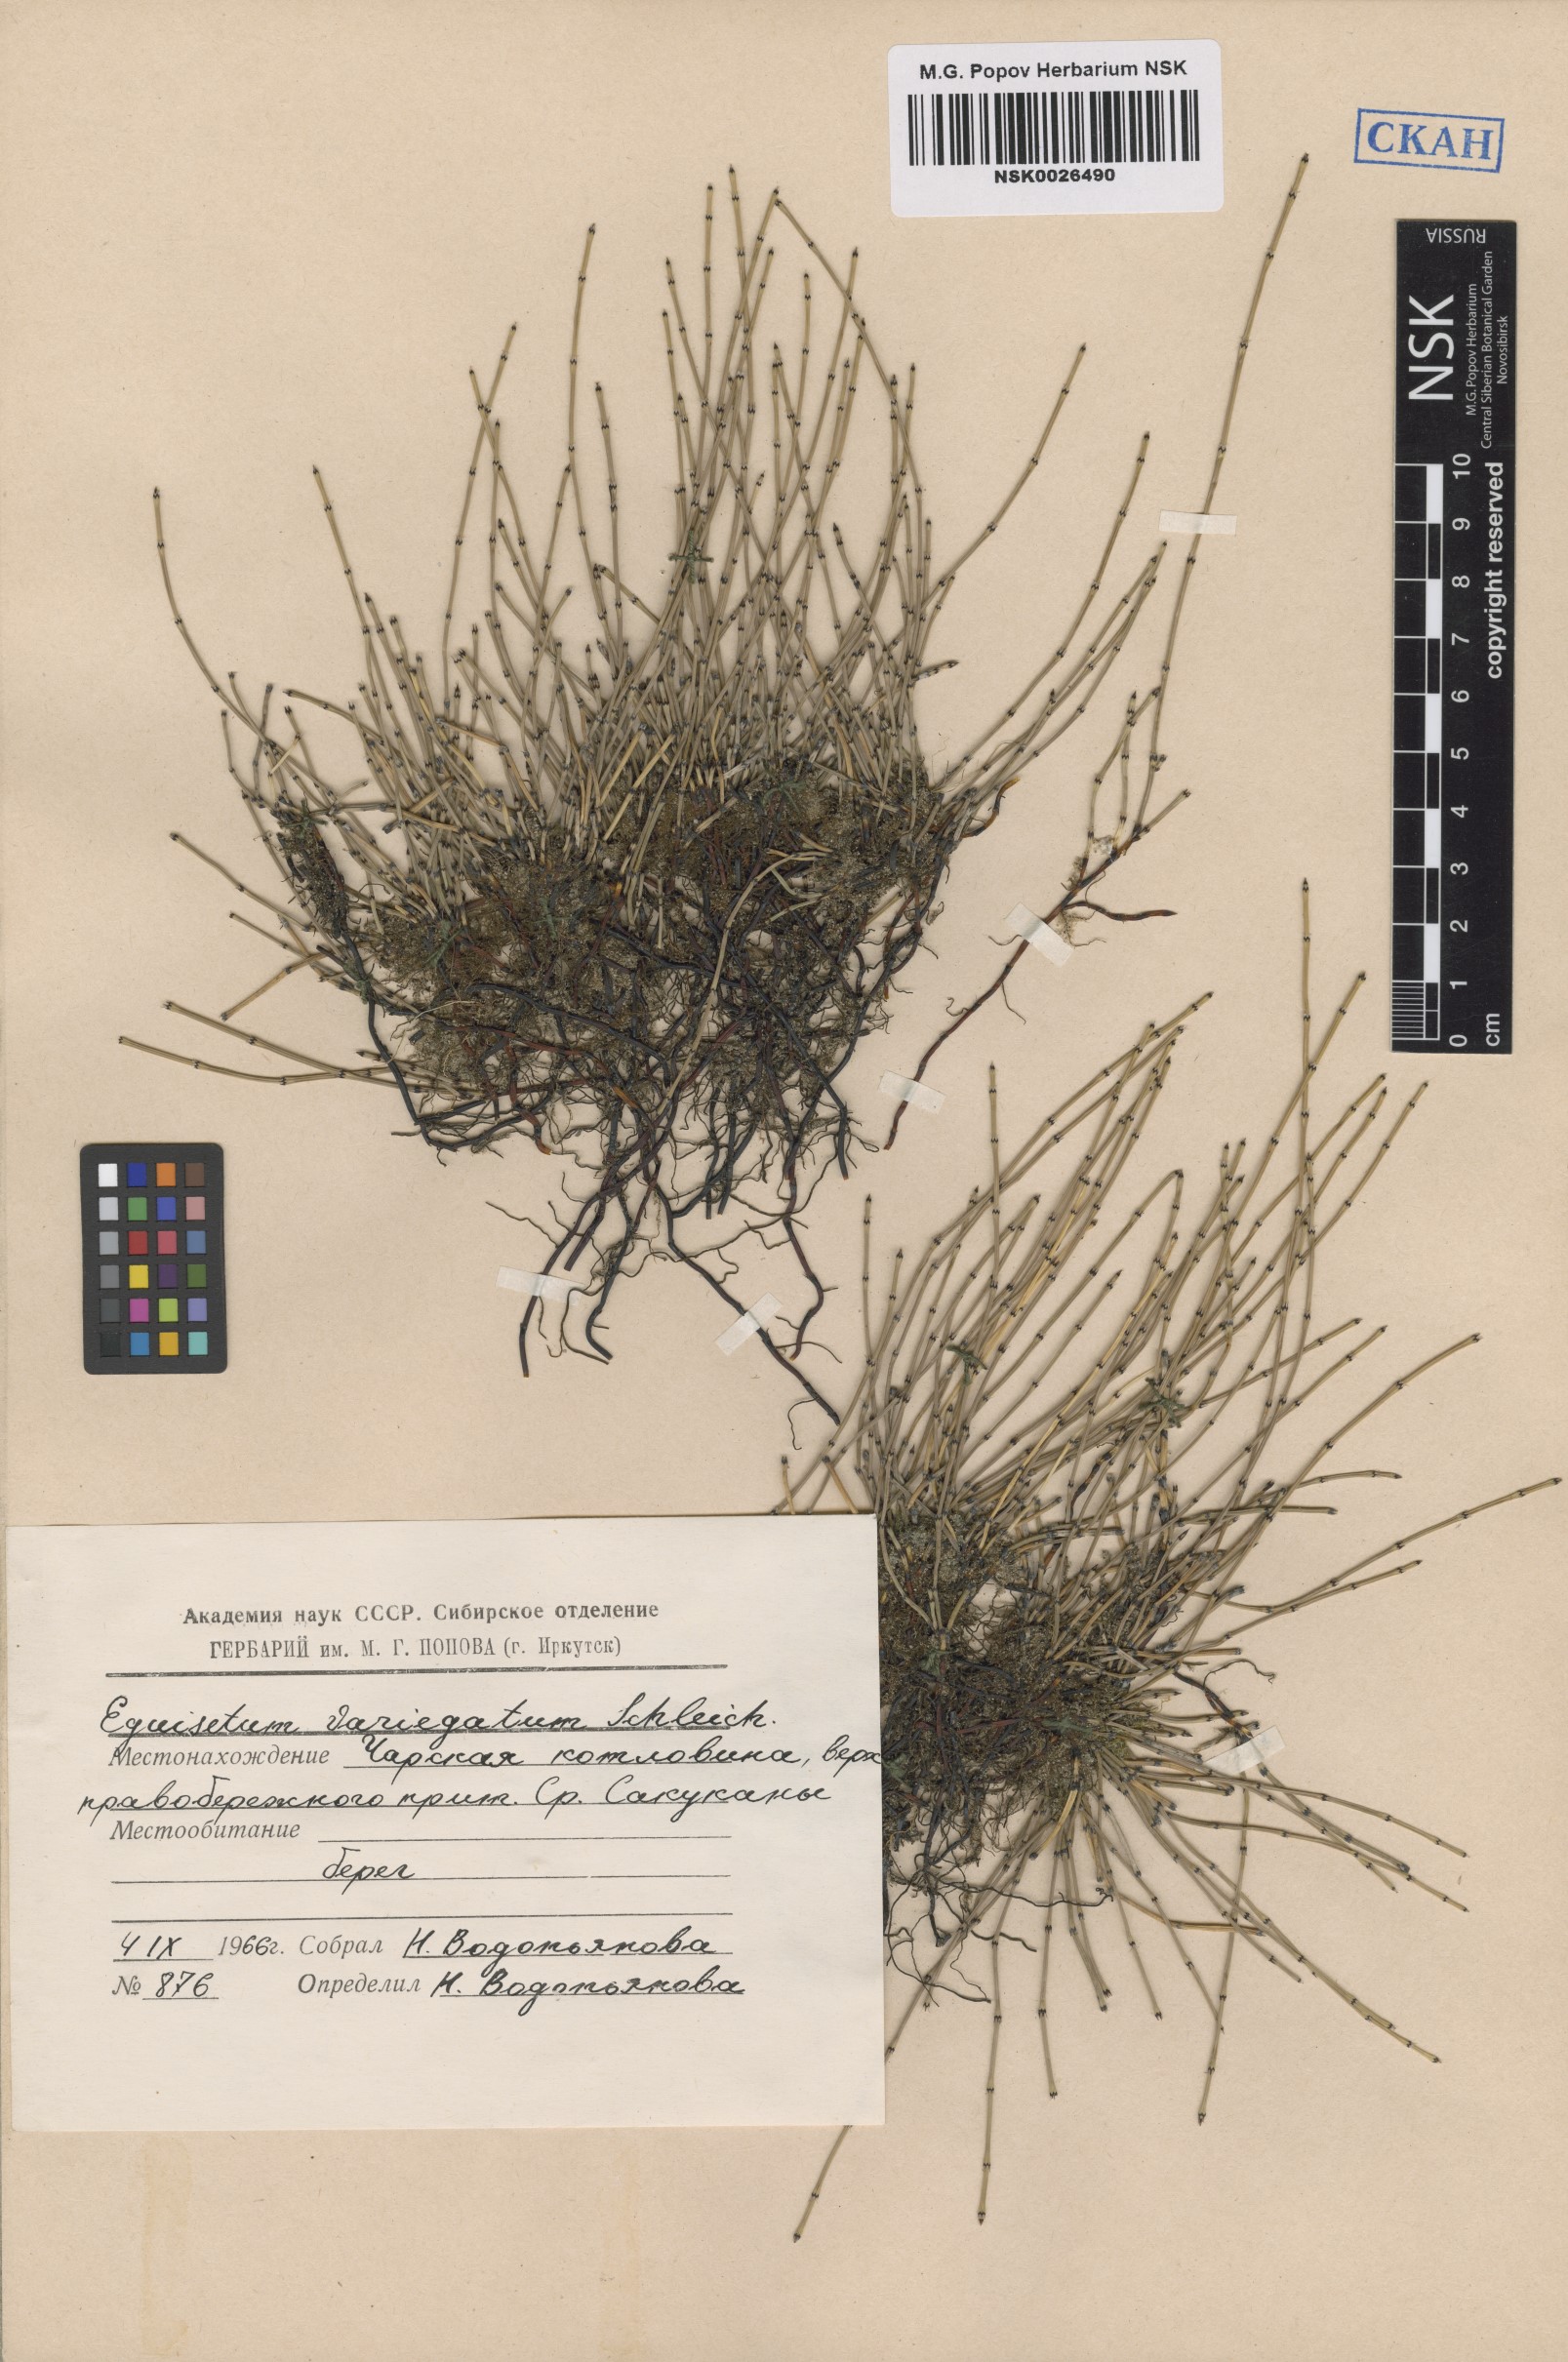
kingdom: Plantae
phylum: Tracheophyta
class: Polypodiopsida
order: Equisetales
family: Equisetaceae
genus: Equisetum
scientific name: Equisetum variegatum
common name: Variegated horsetail
